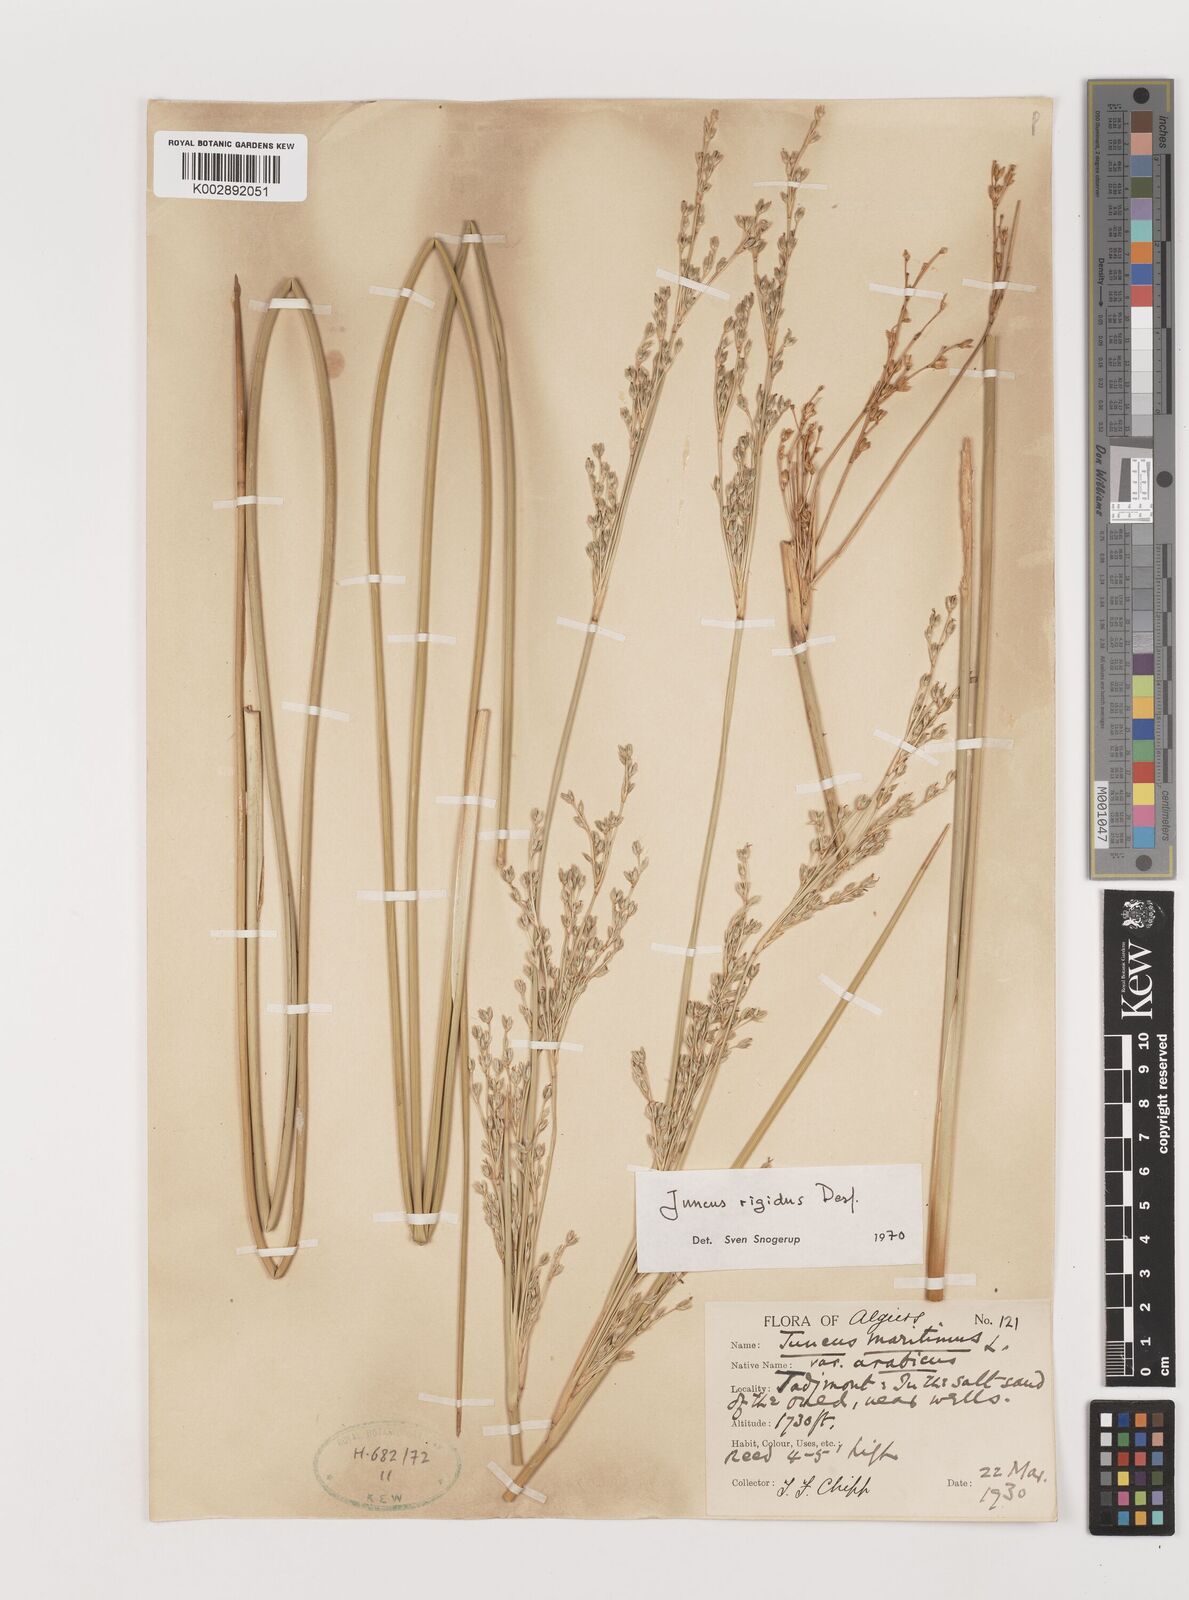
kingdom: Plantae
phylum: Tracheophyta
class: Liliopsida
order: Poales
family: Juncaceae
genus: Juncus
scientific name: Juncus rigidus
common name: Hard sea rush
